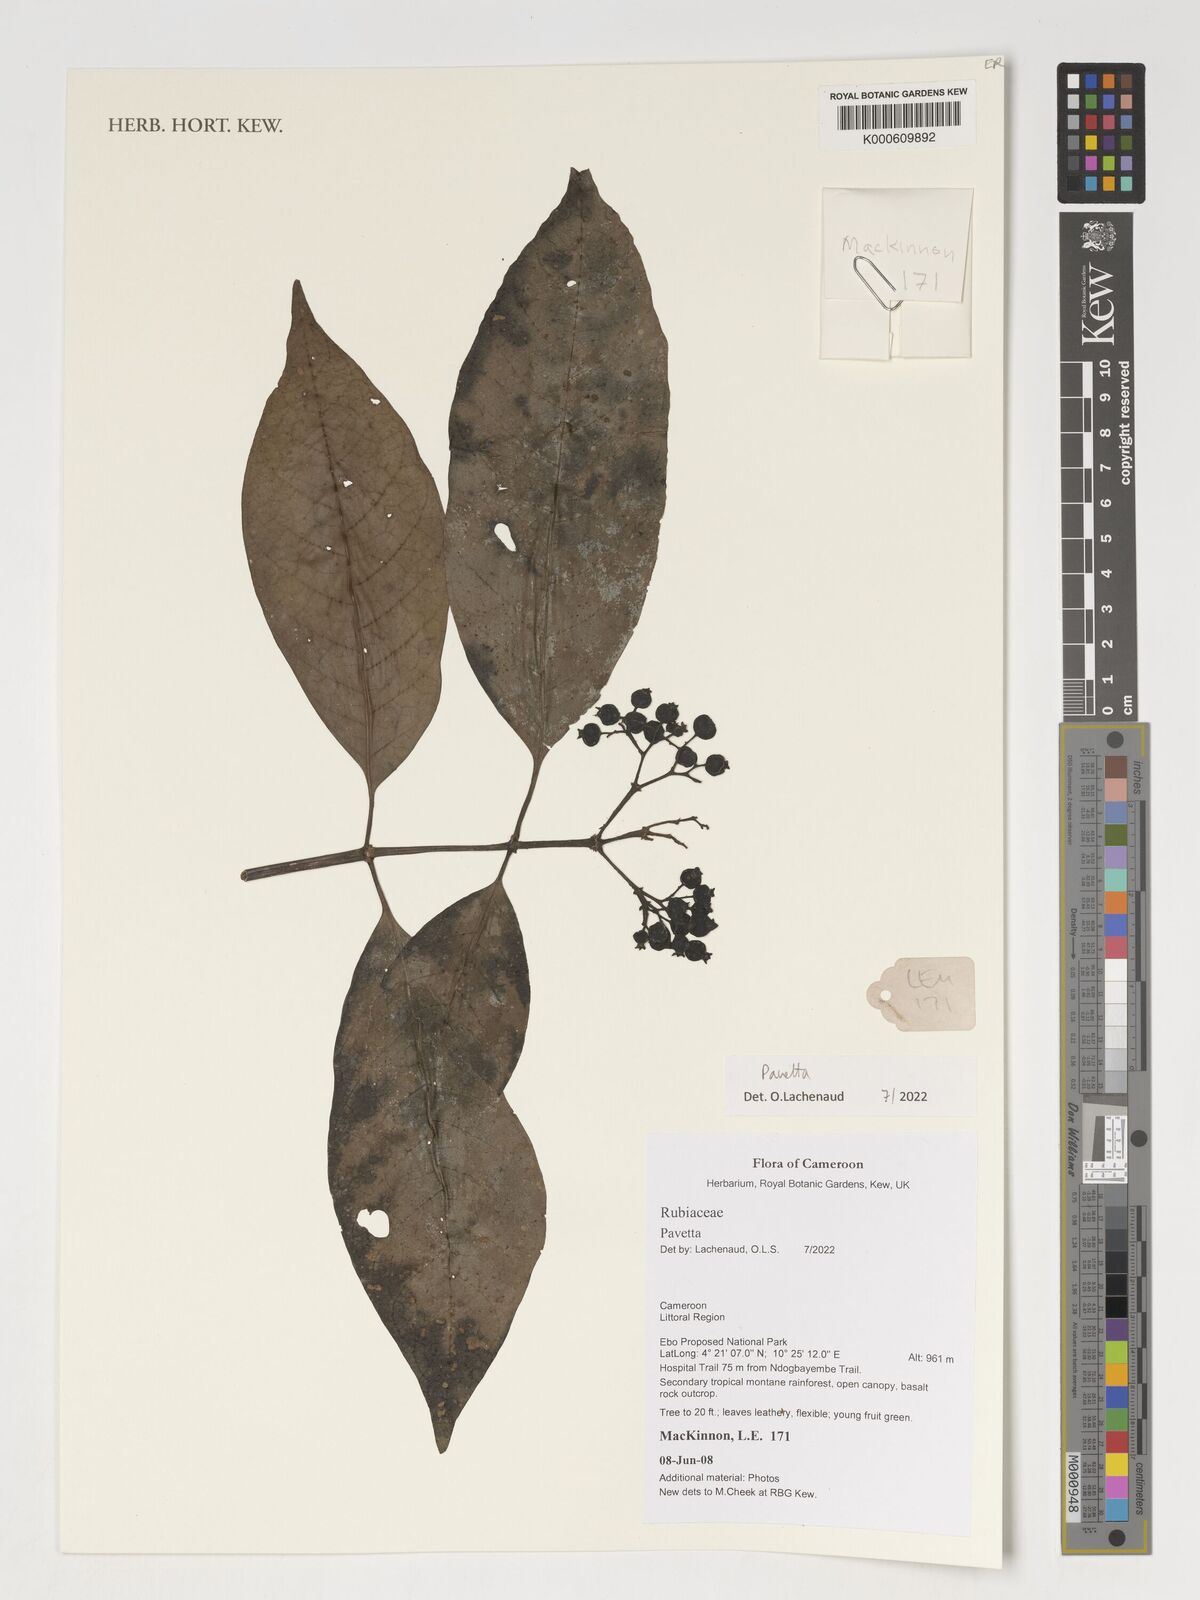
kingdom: Plantae
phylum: Tracheophyta
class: Magnoliopsida
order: Gentianales
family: Rubiaceae
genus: Pavetta
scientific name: Pavetta
